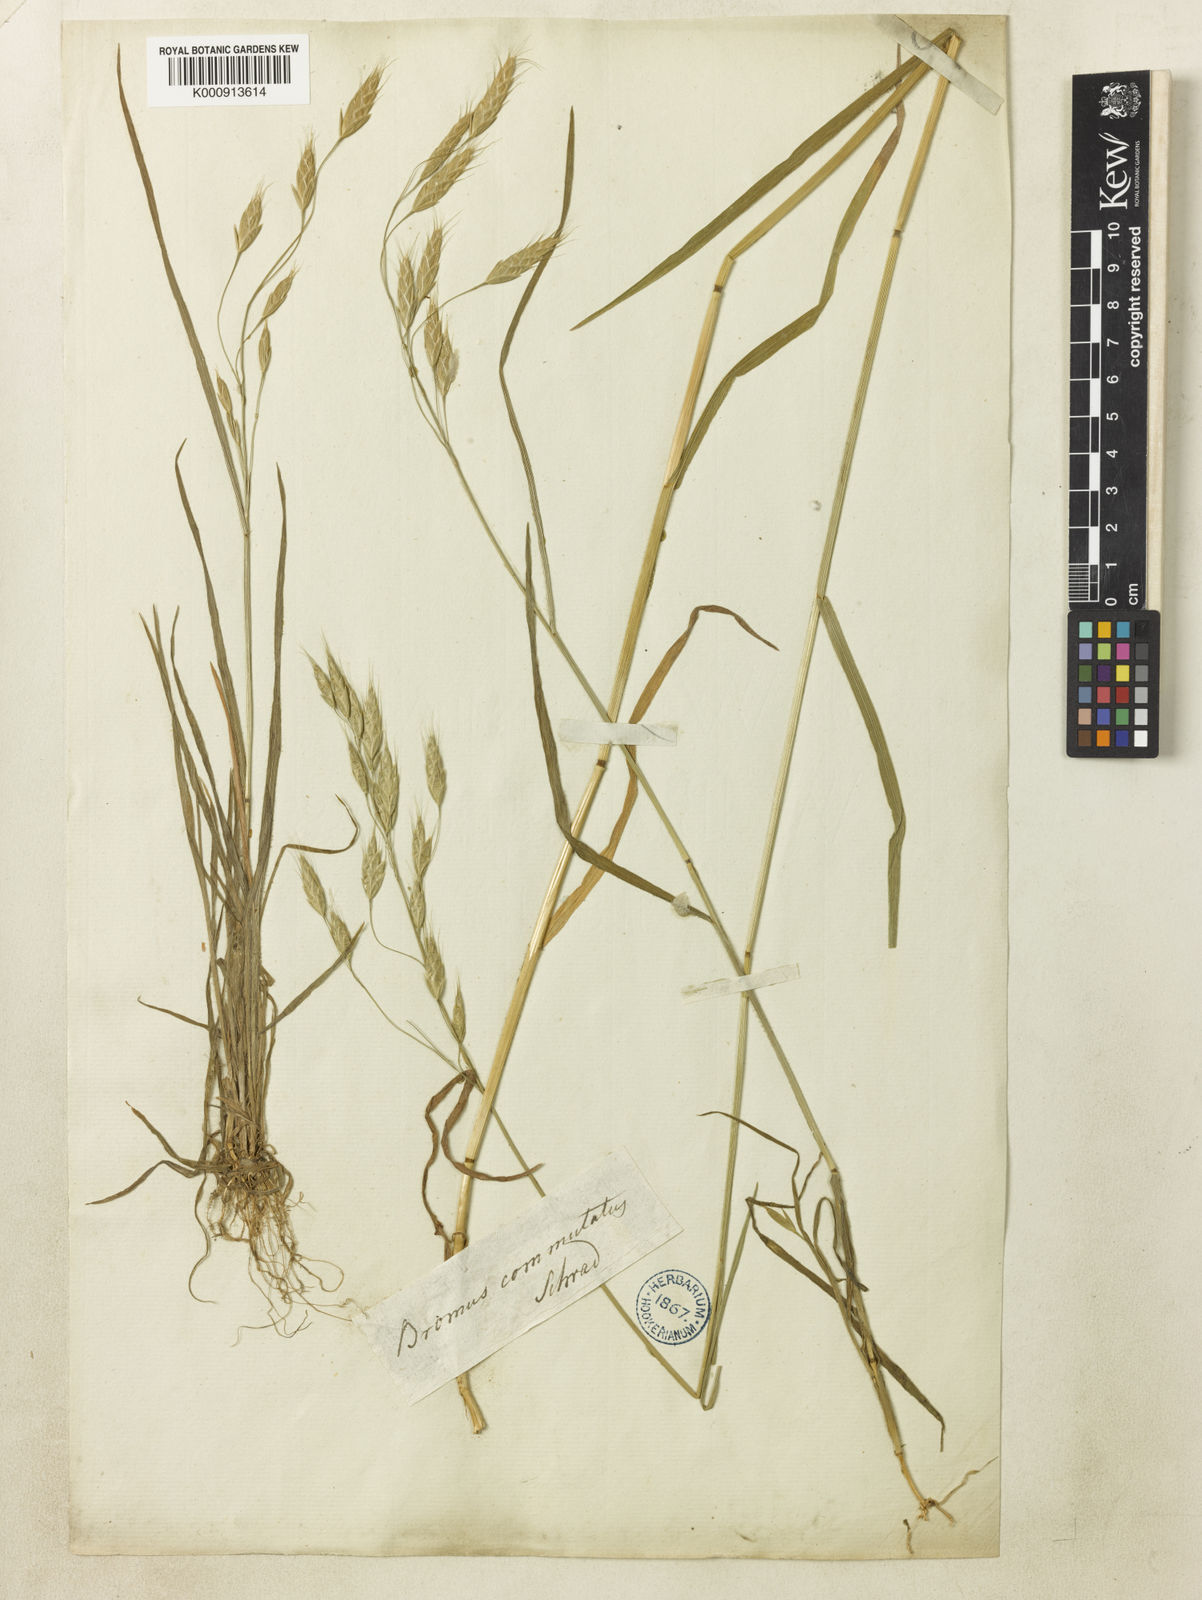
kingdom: Plantae
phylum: Tracheophyta
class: Liliopsida
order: Poales
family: Poaceae
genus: Bromus
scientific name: Bromus commutatus
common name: Meadow brome
